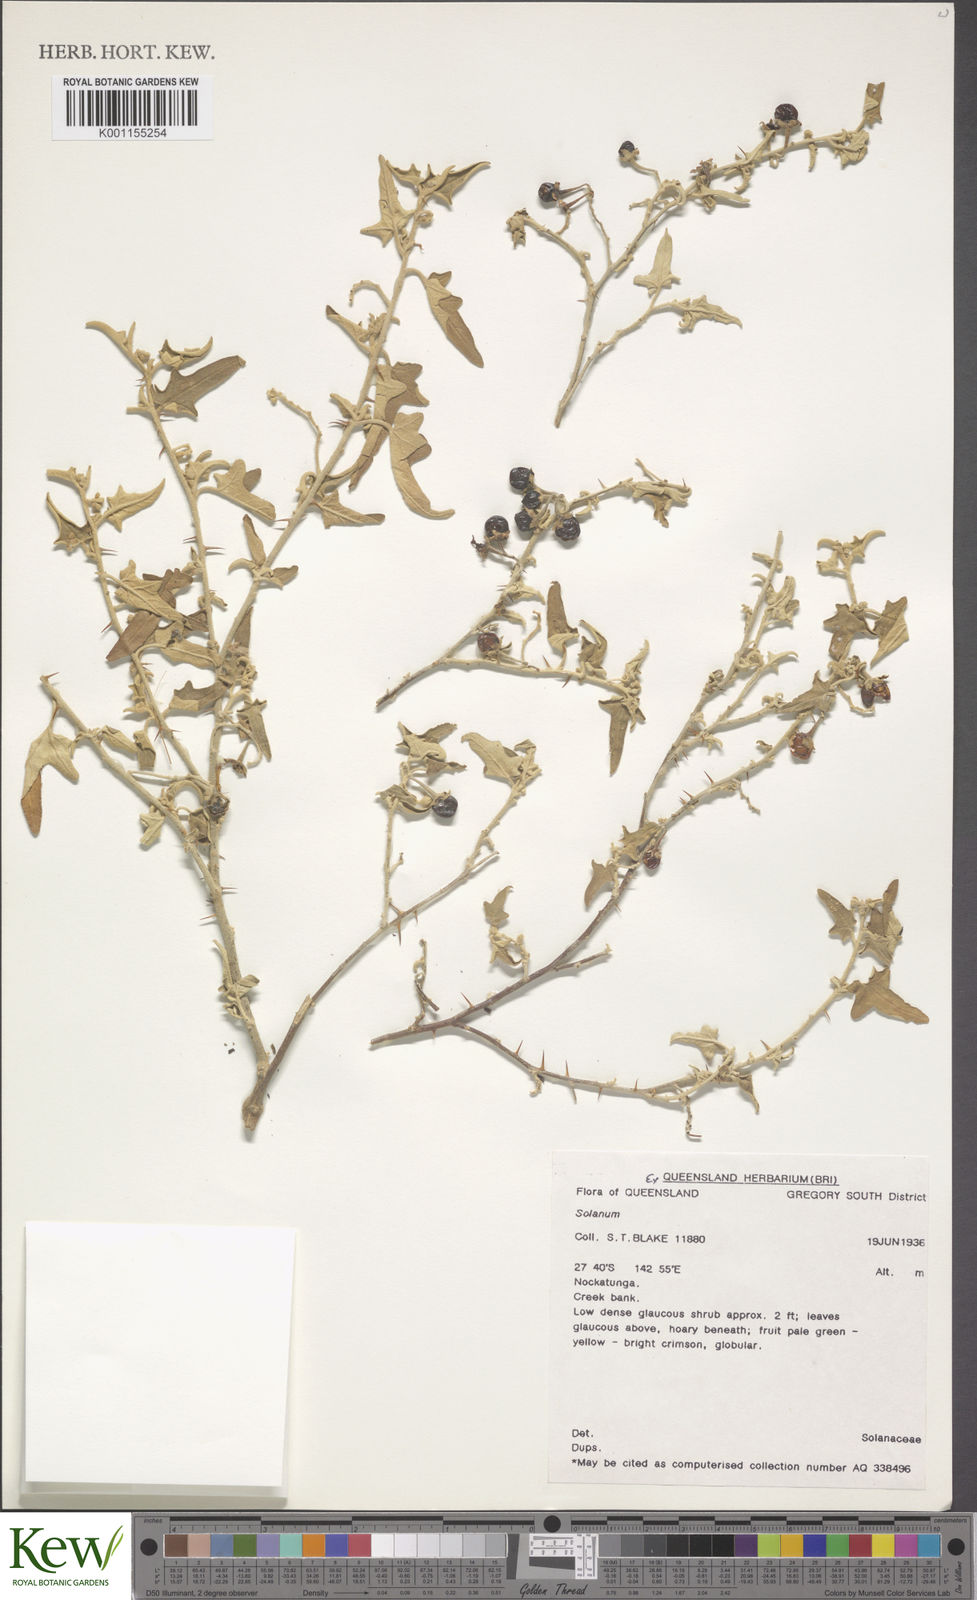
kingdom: Plantae
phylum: Tracheophyta
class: Magnoliopsida
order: Solanales
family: Solanaceae
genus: Solanum
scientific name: Solanum ferocissimum
